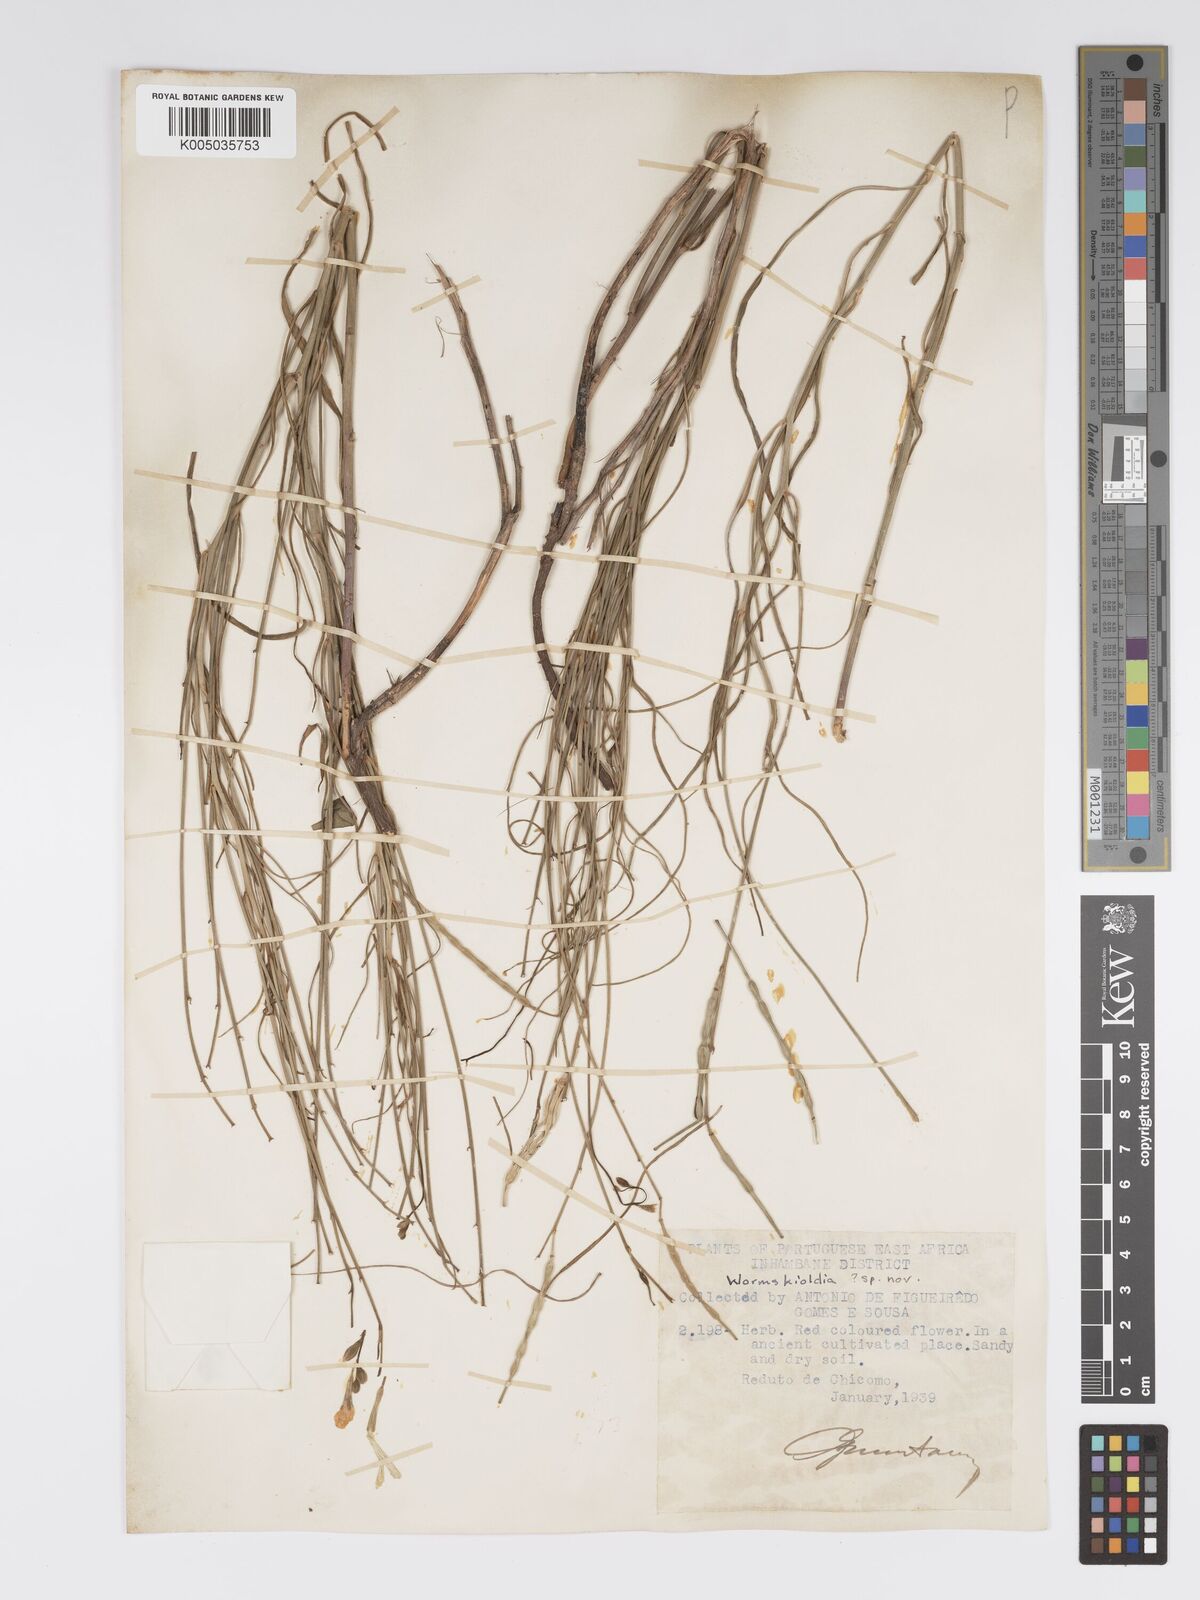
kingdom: Plantae
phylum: Tracheophyta
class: Magnoliopsida
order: Malpighiales
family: Turneraceae
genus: Tricliceras
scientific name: Tricliceras mossambicense
